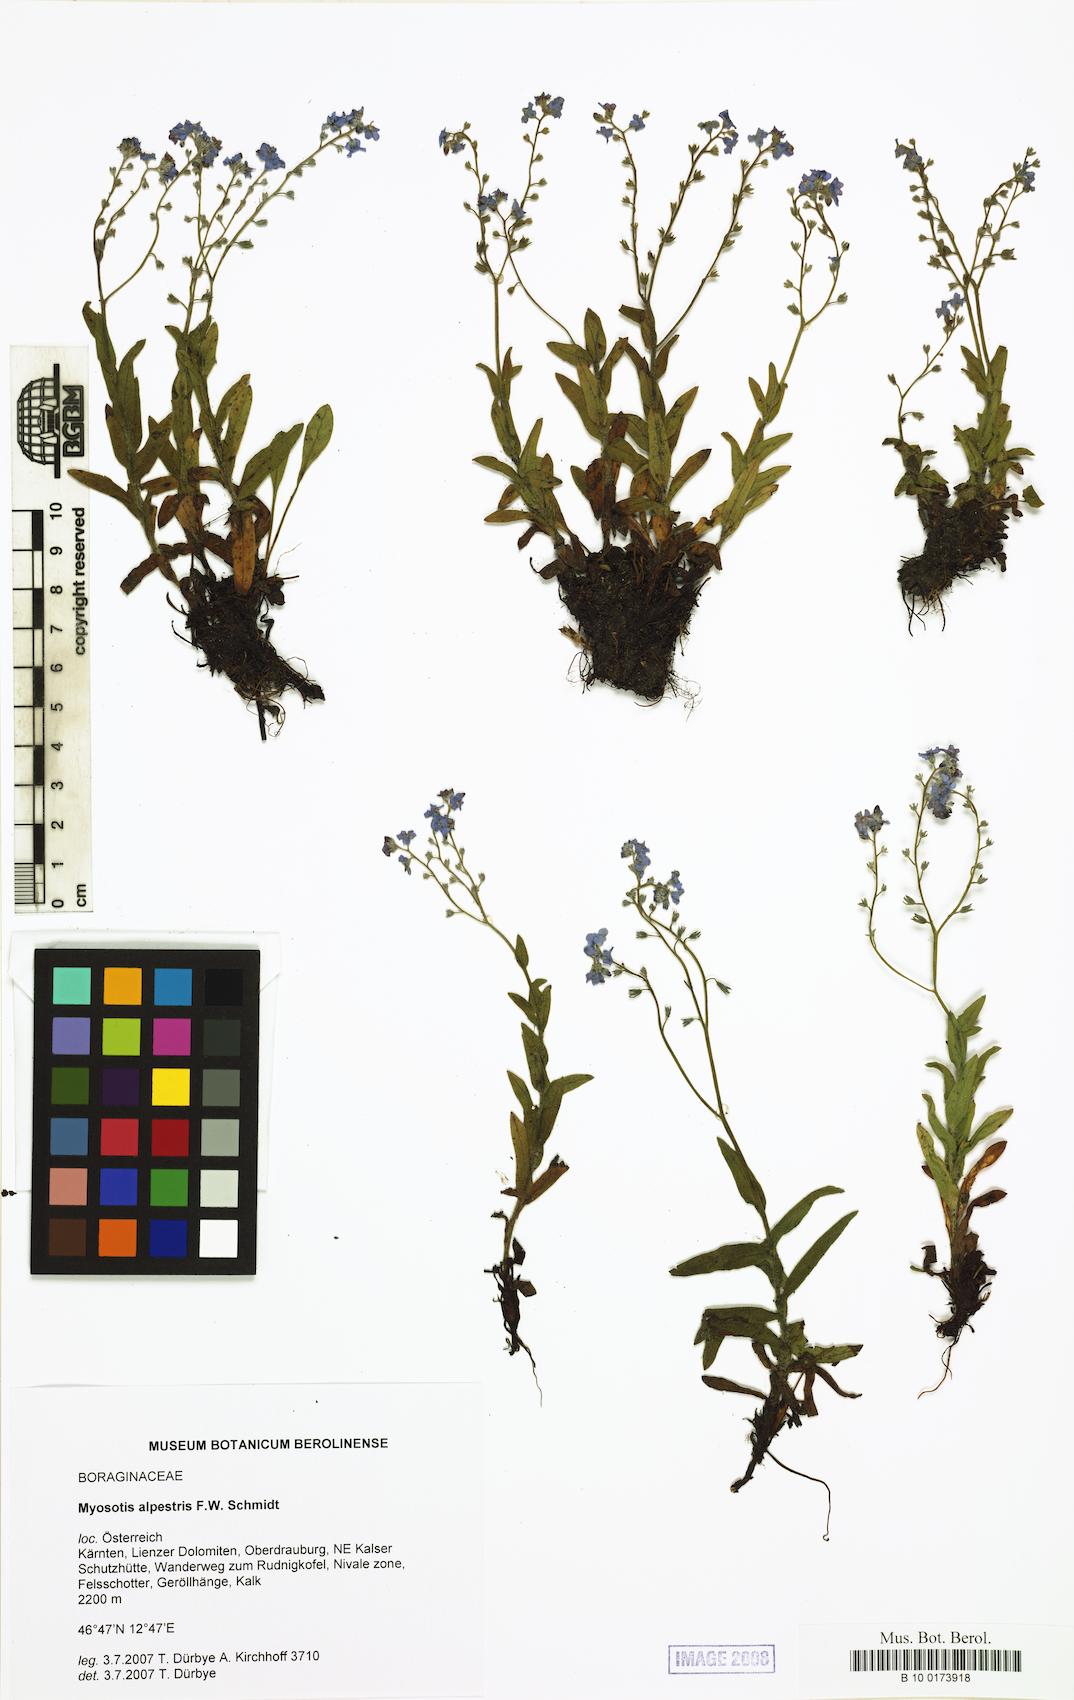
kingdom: Plantae
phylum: Tracheophyta
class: Magnoliopsida
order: Boraginales
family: Boraginaceae
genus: Myosotis
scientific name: Myosotis alpestris
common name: Alpine forget-me-not
